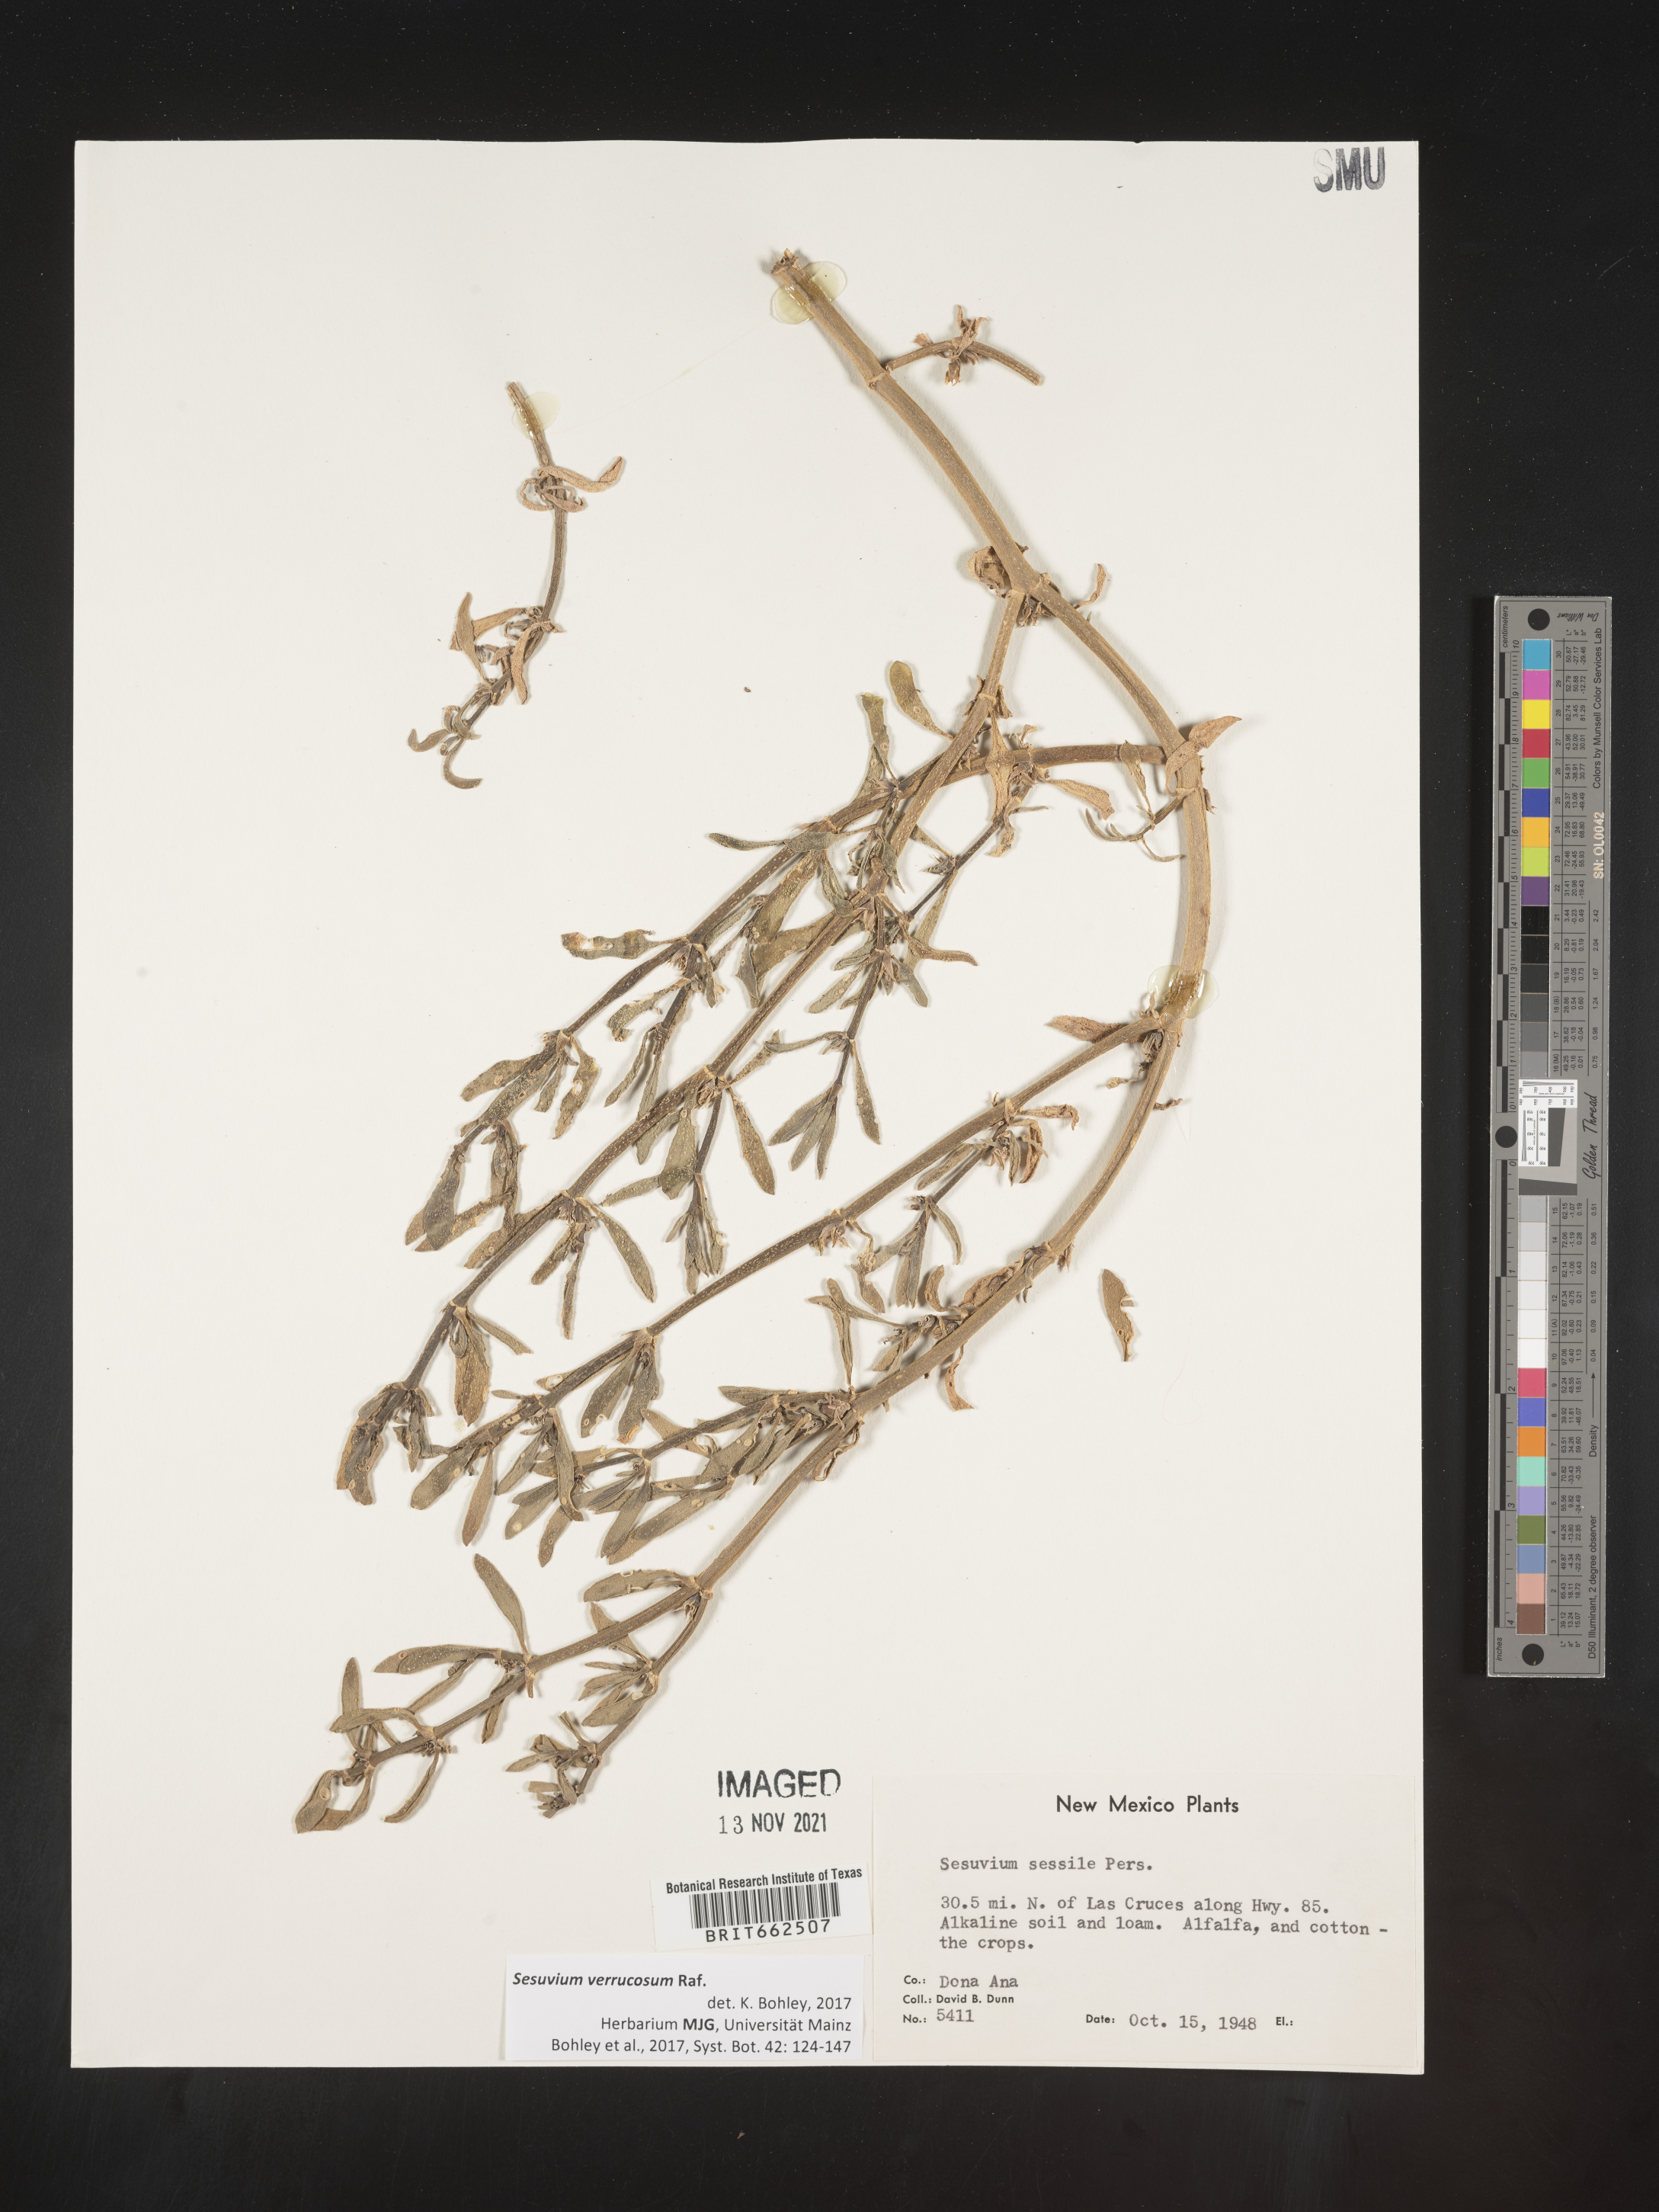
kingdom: Plantae
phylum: Tracheophyta
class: Magnoliopsida
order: Caryophyllales
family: Aizoaceae
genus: Sesuvium
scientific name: Sesuvium
